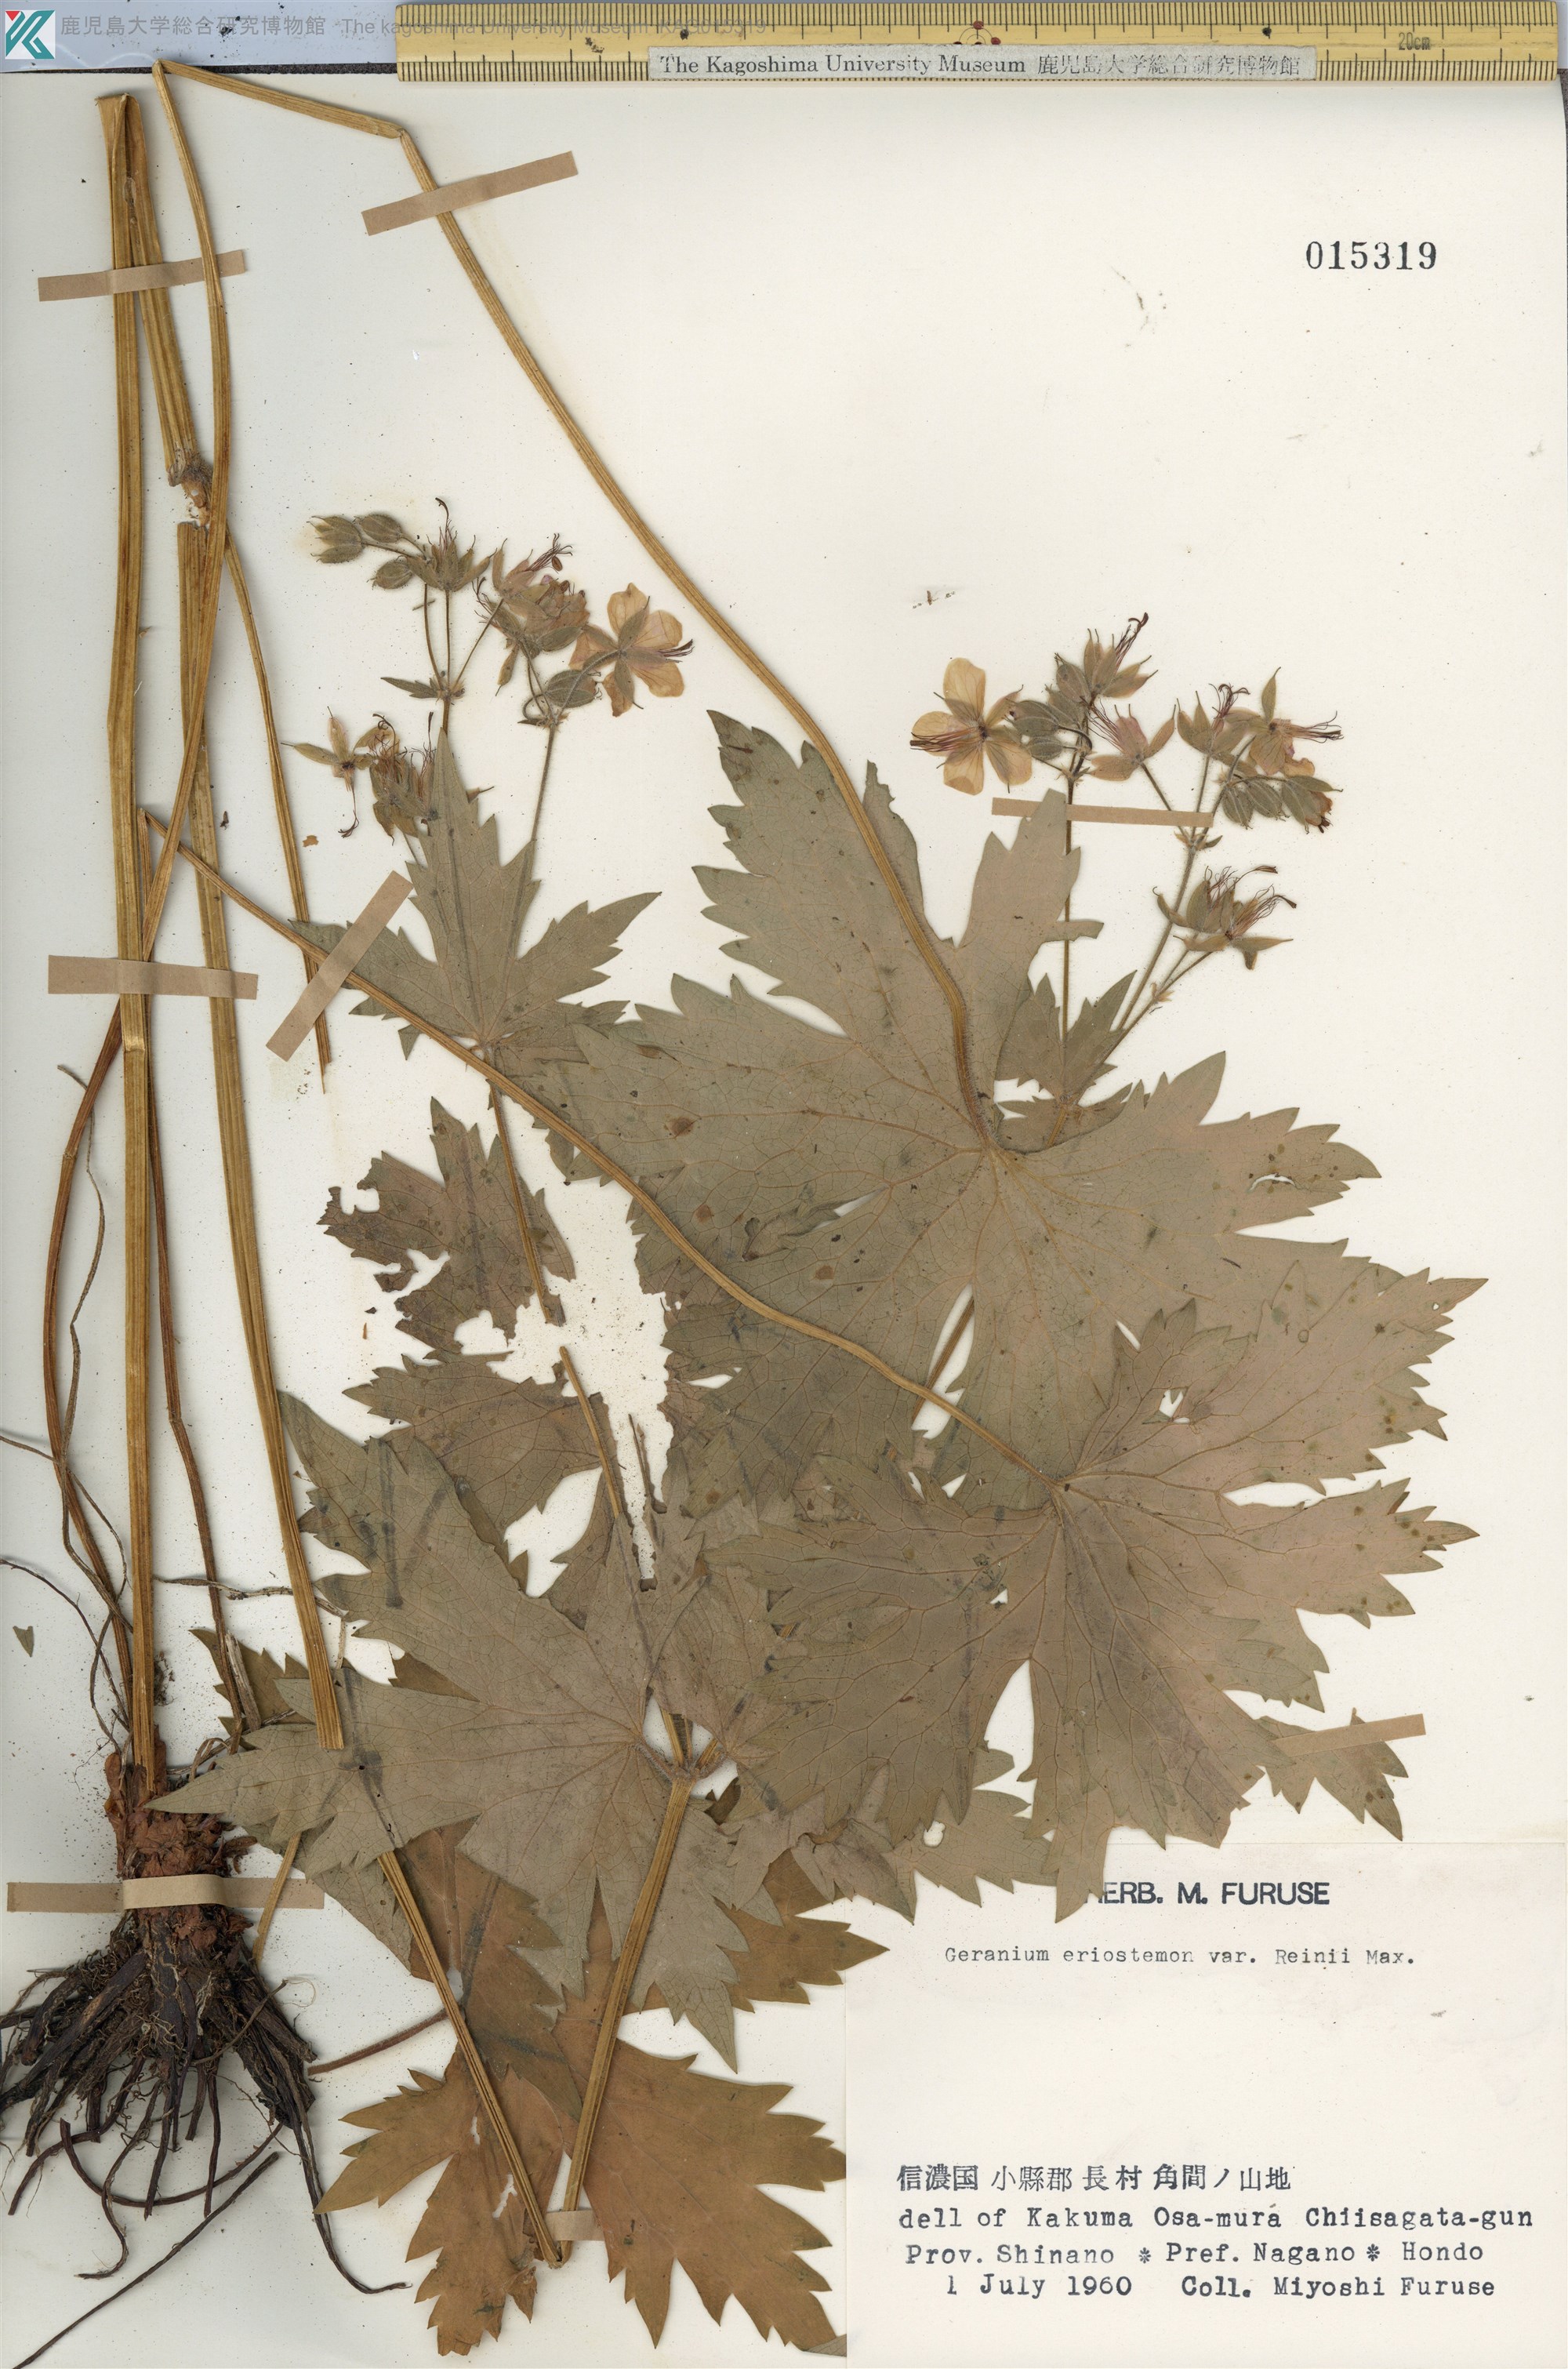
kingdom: Plantae
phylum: Tracheophyta
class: Magnoliopsida
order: Geraniales
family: Geraniaceae
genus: Geranium
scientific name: Geranium erianthum
